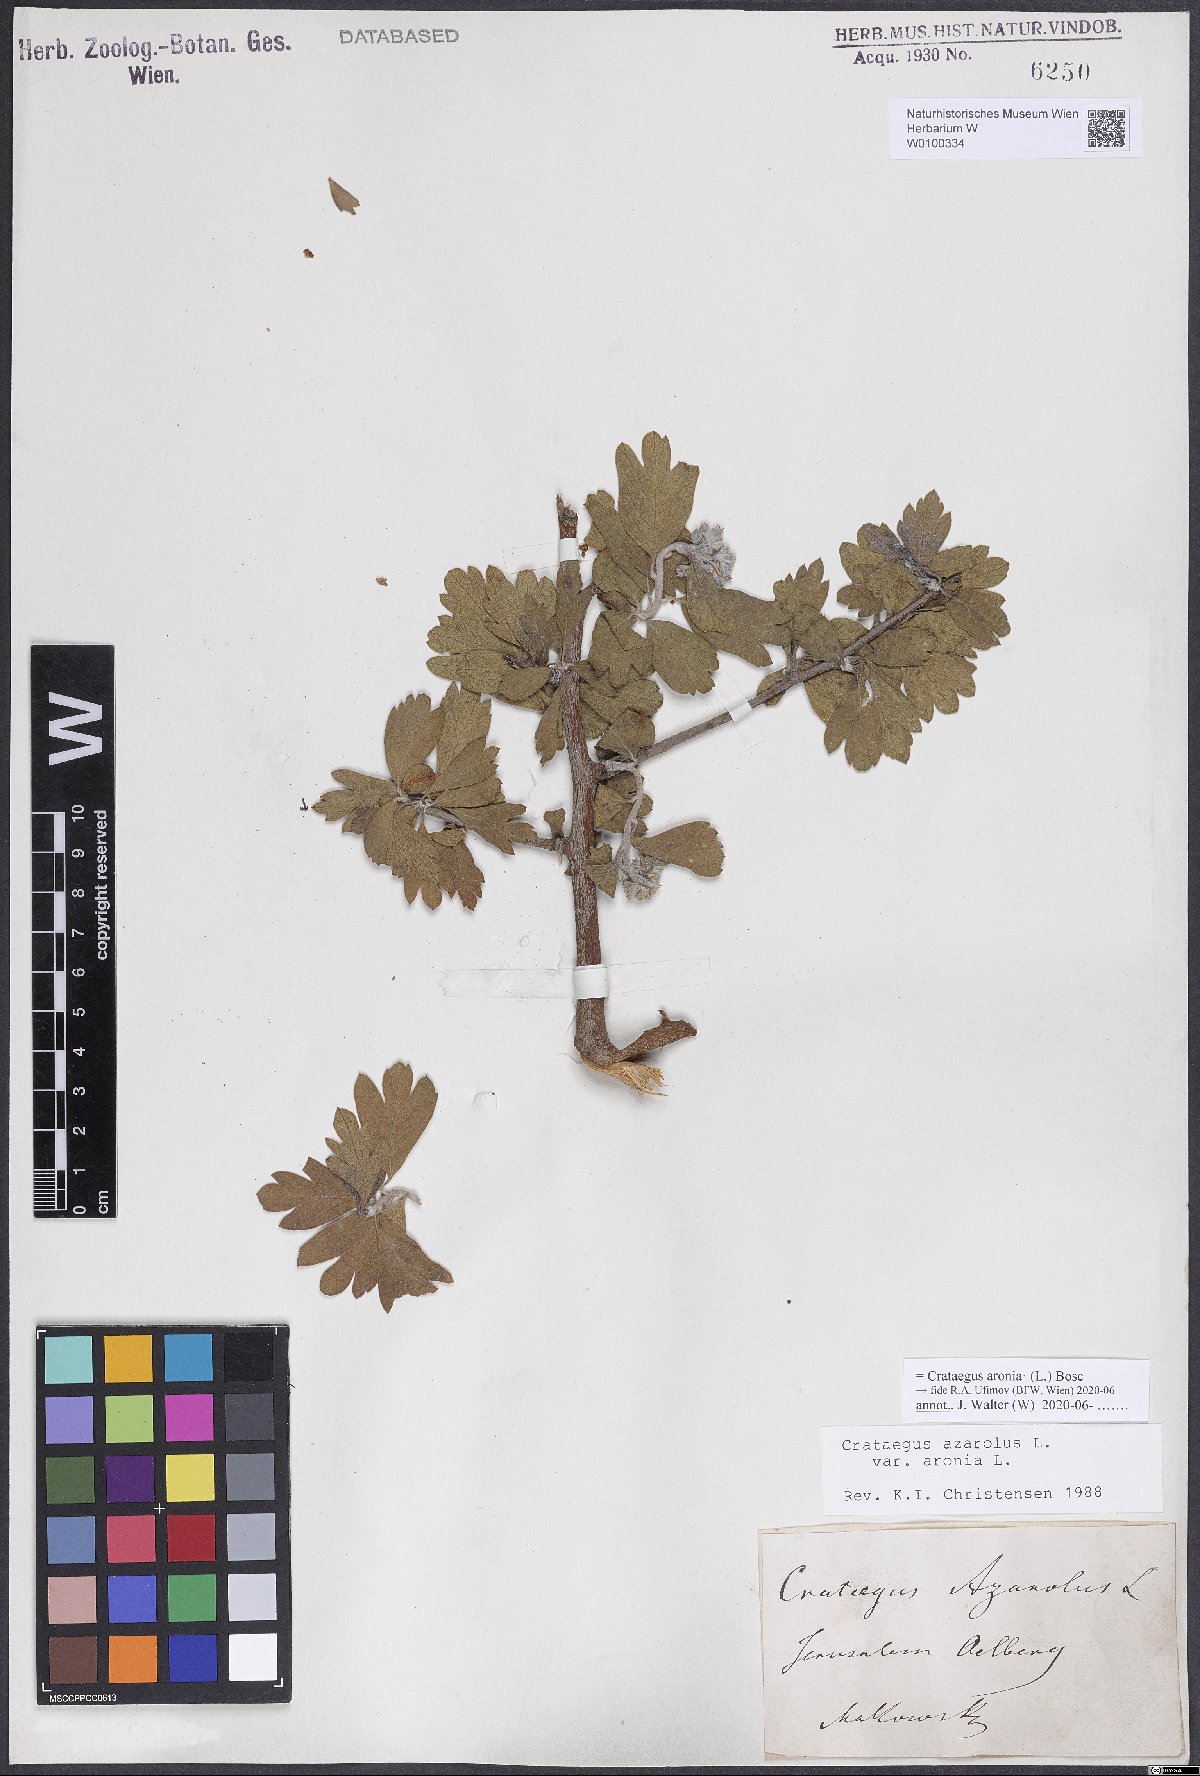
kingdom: Plantae
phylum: Tracheophyta
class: Magnoliopsida
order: Rosales
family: Rosaceae
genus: Crataegus
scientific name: Crataegus azarolus
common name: Azarole
